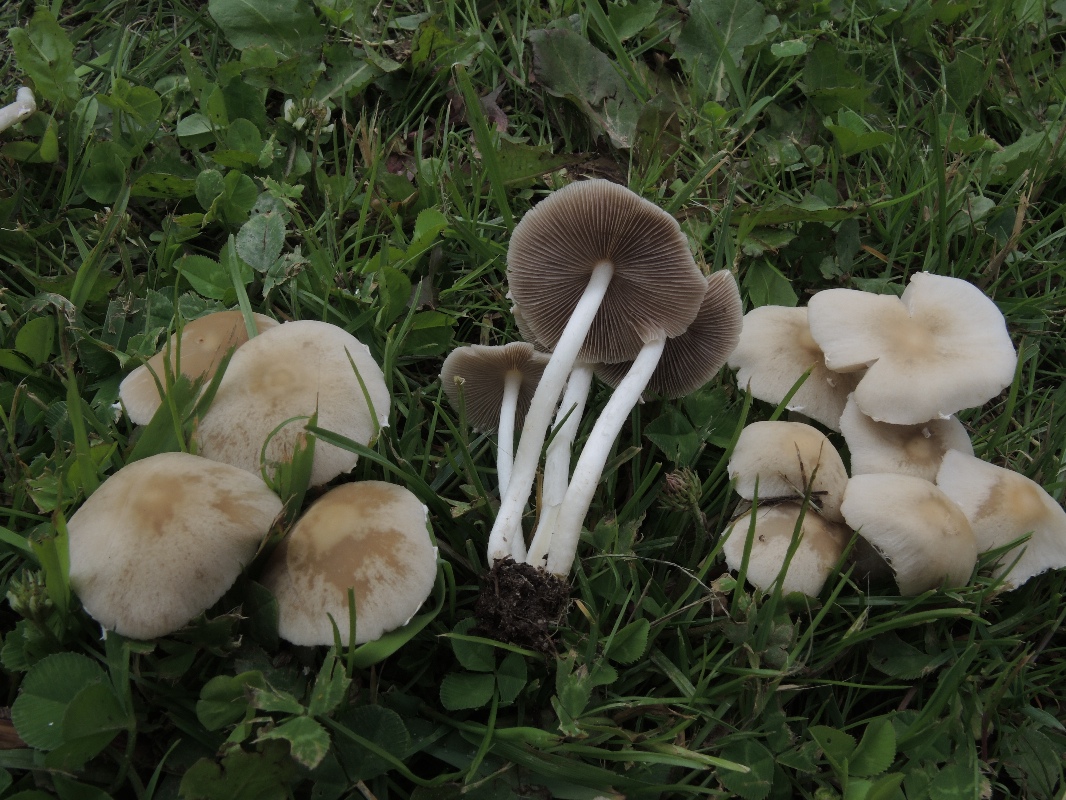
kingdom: Fungi
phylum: Basidiomycota
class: Agaricomycetes
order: Agaricales
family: Psathyrellaceae
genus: Candolleomyces
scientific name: Candolleomyces candolleanus
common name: Candolles mørkhat
